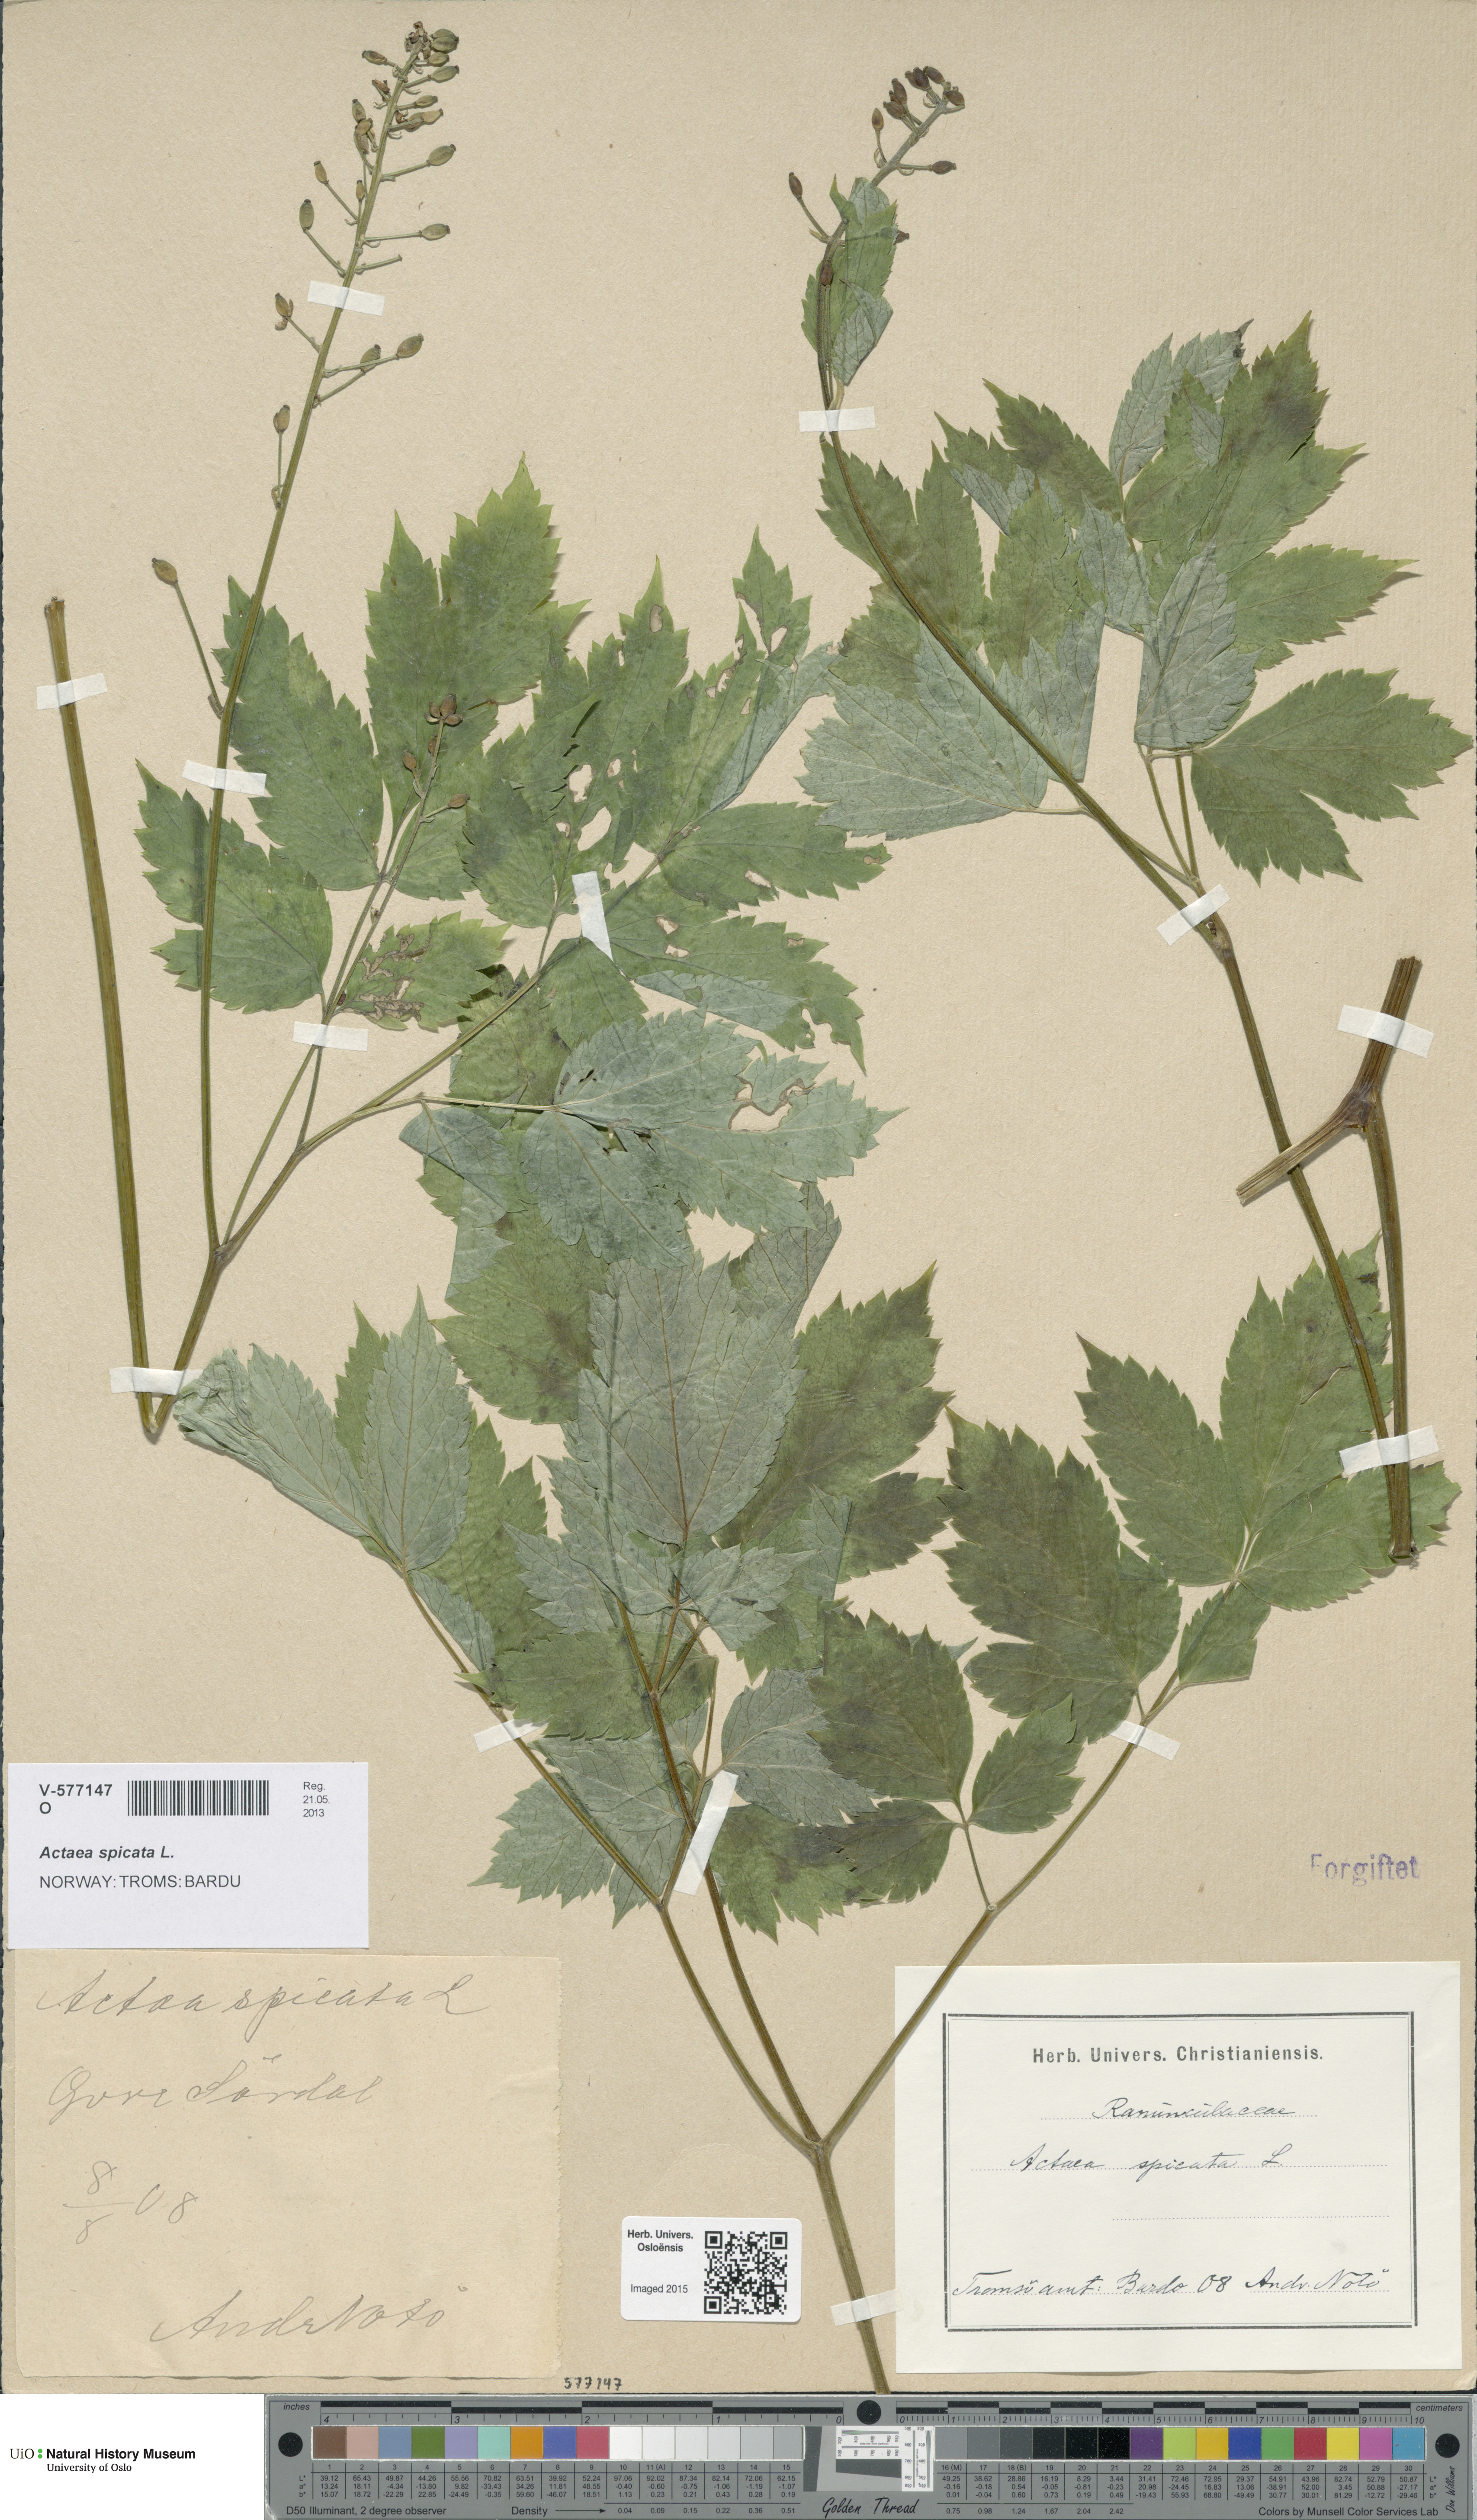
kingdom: Plantae
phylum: Tracheophyta
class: Magnoliopsida
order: Ranunculales
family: Ranunculaceae
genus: Actaea
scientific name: Actaea spicata
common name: Baneberry
